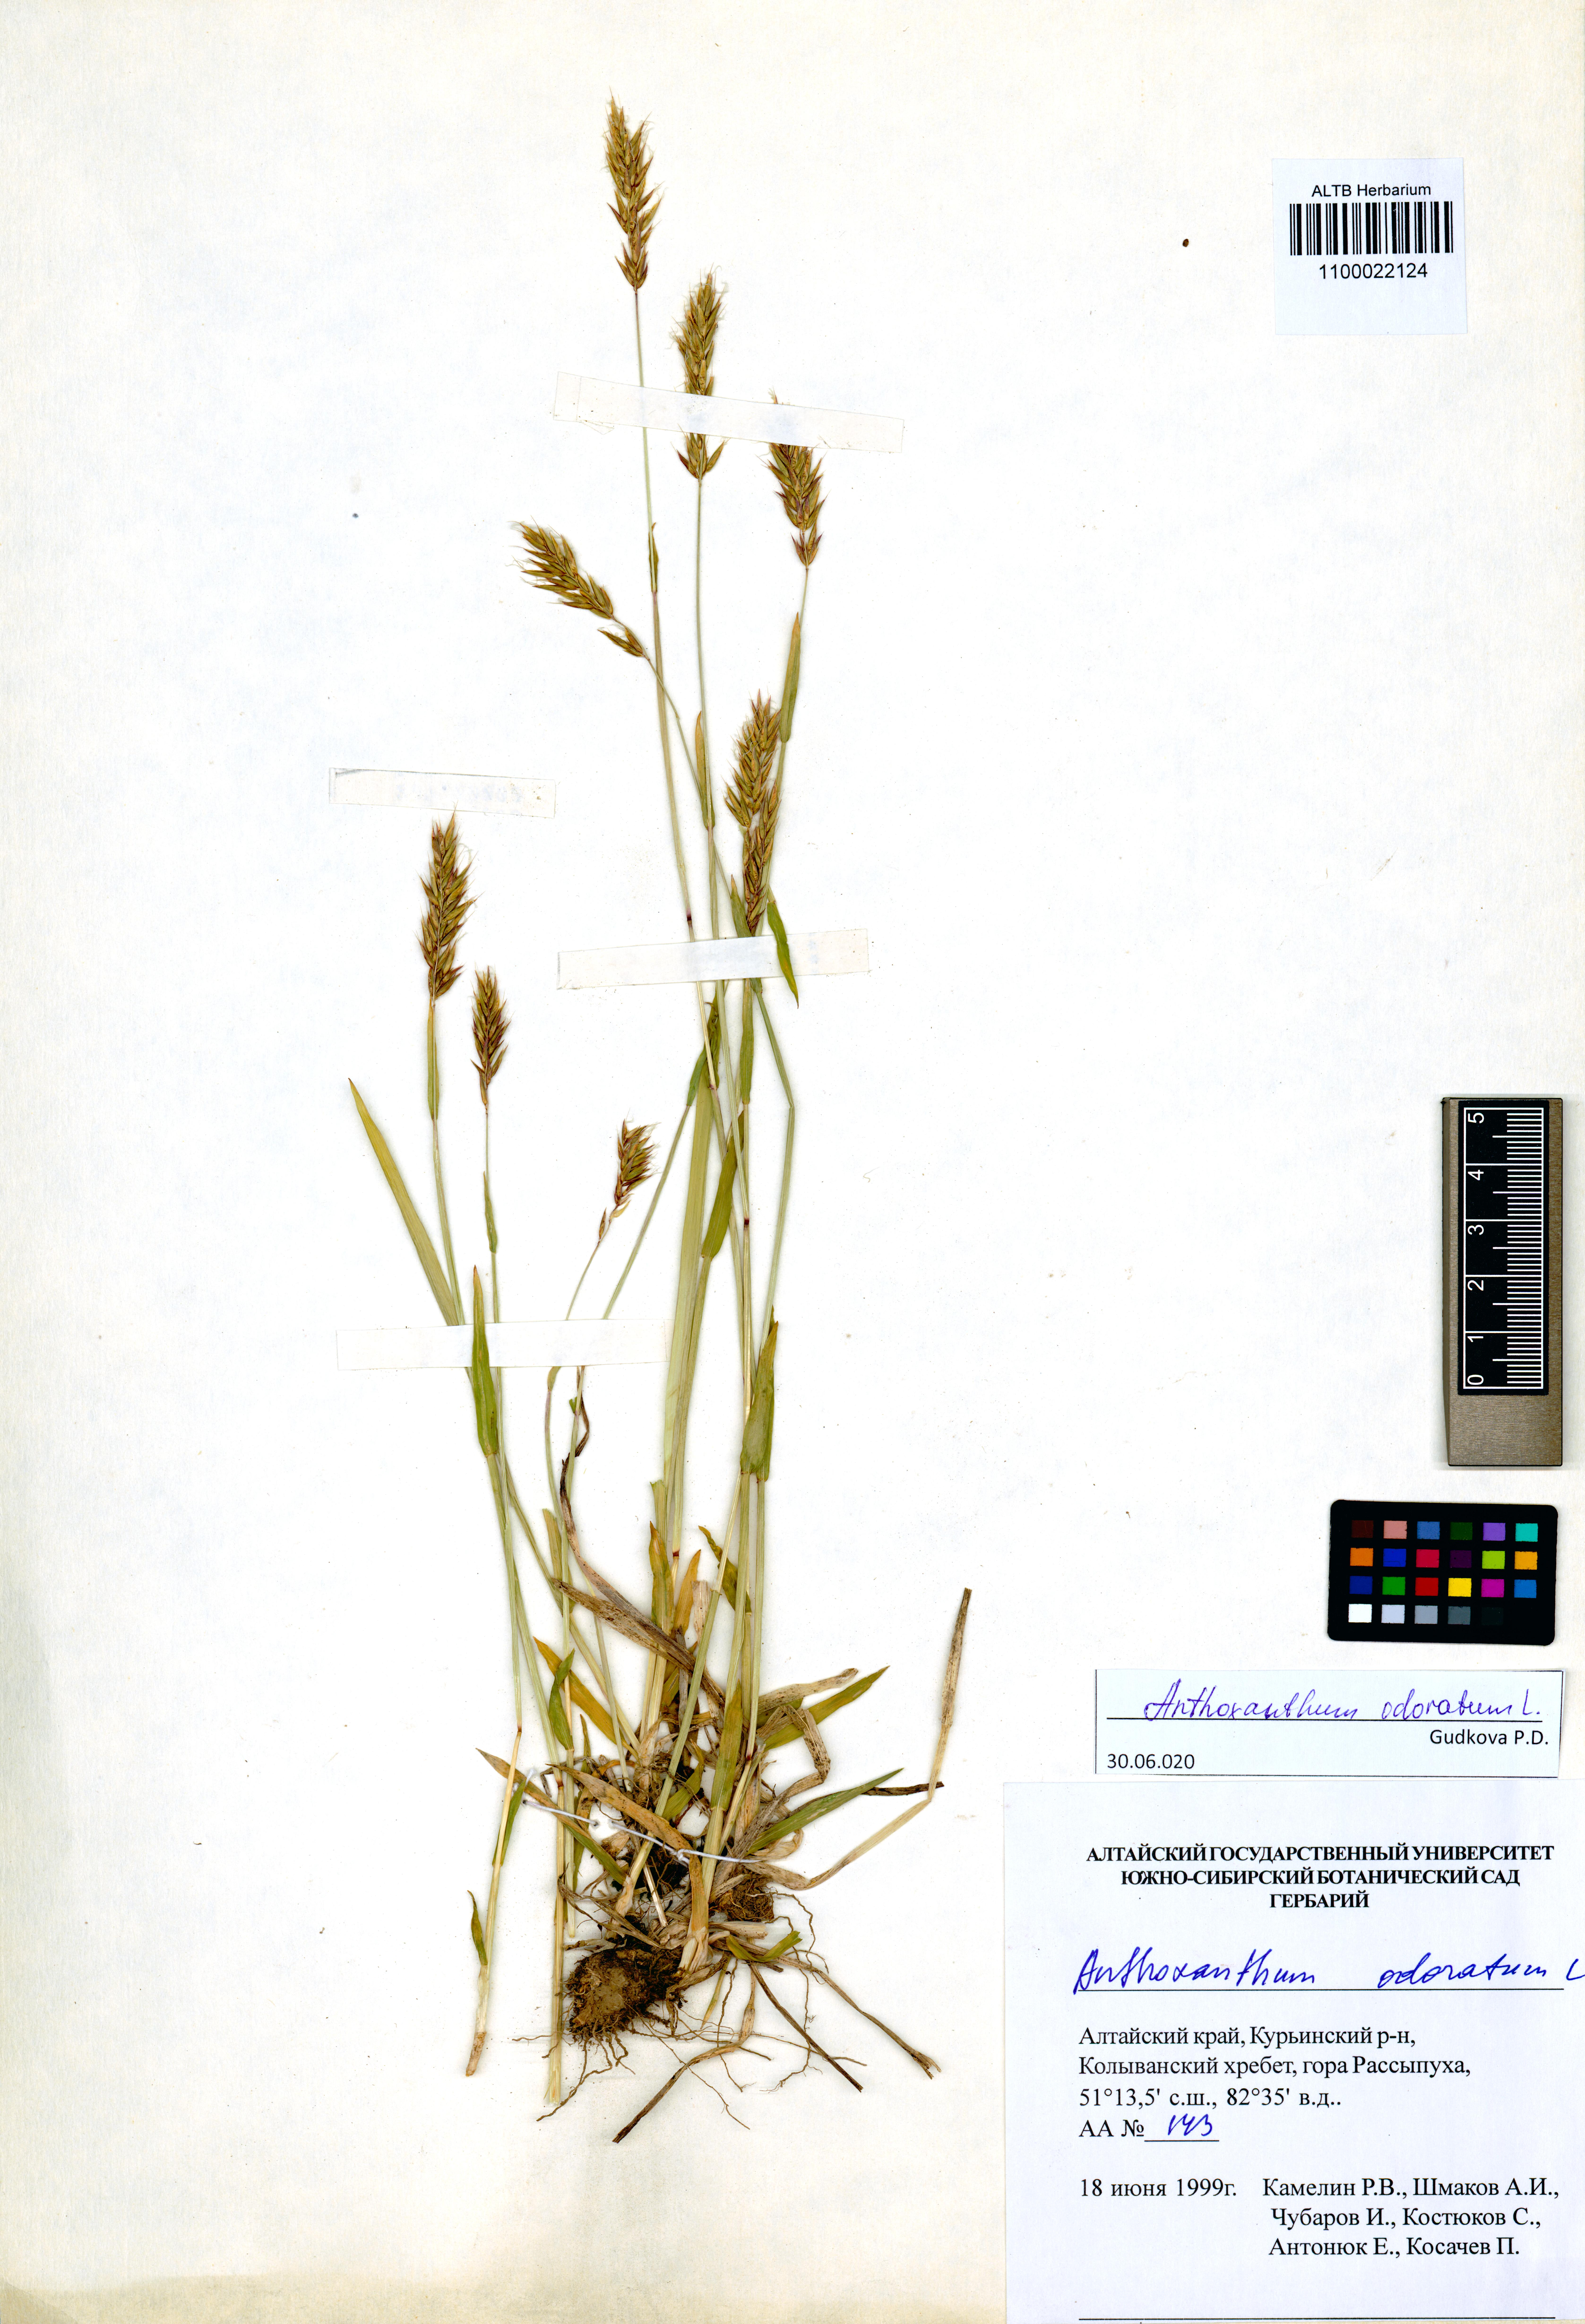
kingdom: Plantae
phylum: Tracheophyta
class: Liliopsida
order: Poales
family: Poaceae
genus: Anthoxanthum
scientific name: Anthoxanthum odoratum
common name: Sweet vernalgrass
